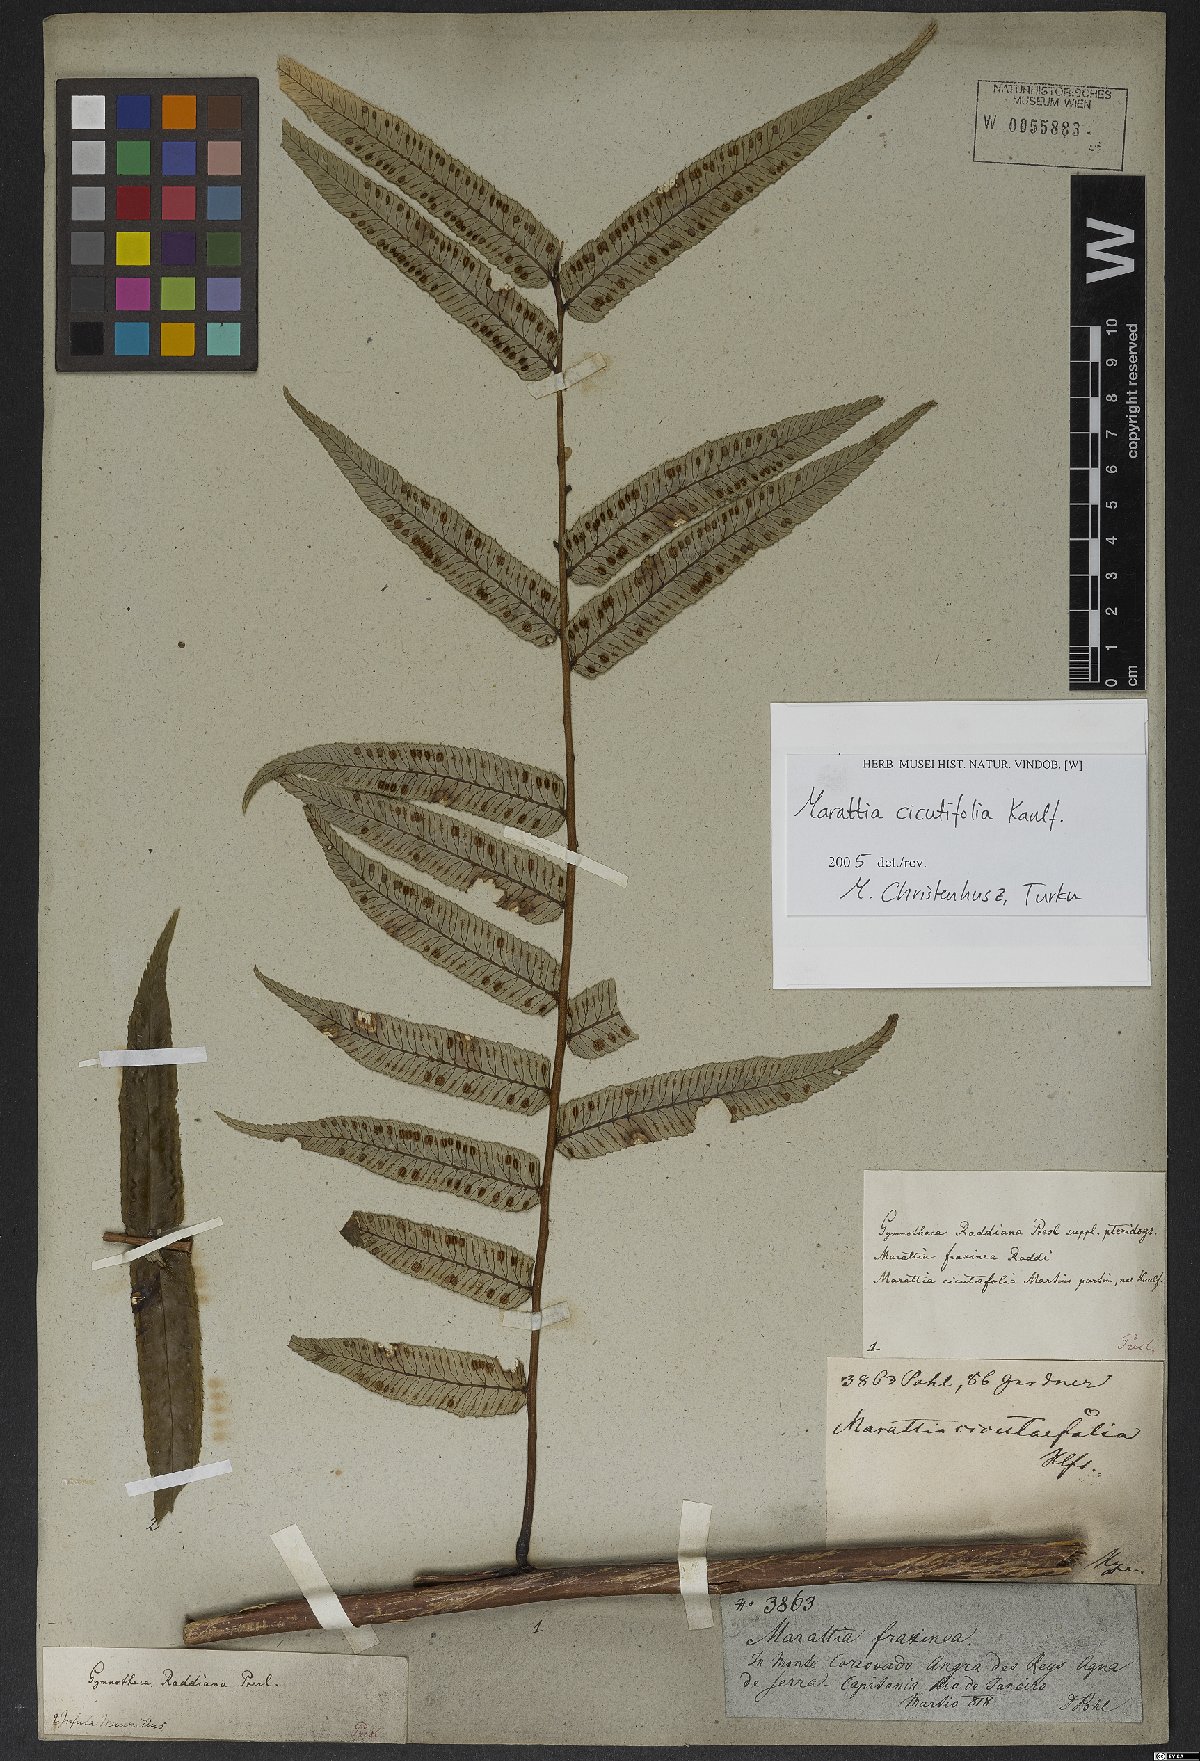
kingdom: Plantae
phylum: Tracheophyta
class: Polypodiopsida
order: Marattiales
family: Marattiaceae
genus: Eupodium
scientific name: Eupodium cicutifolium
